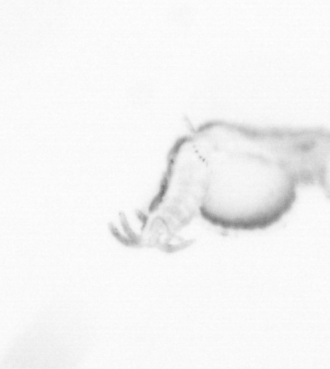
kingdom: Animalia
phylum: Annelida
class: Polychaeta
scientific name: Polychaeta
